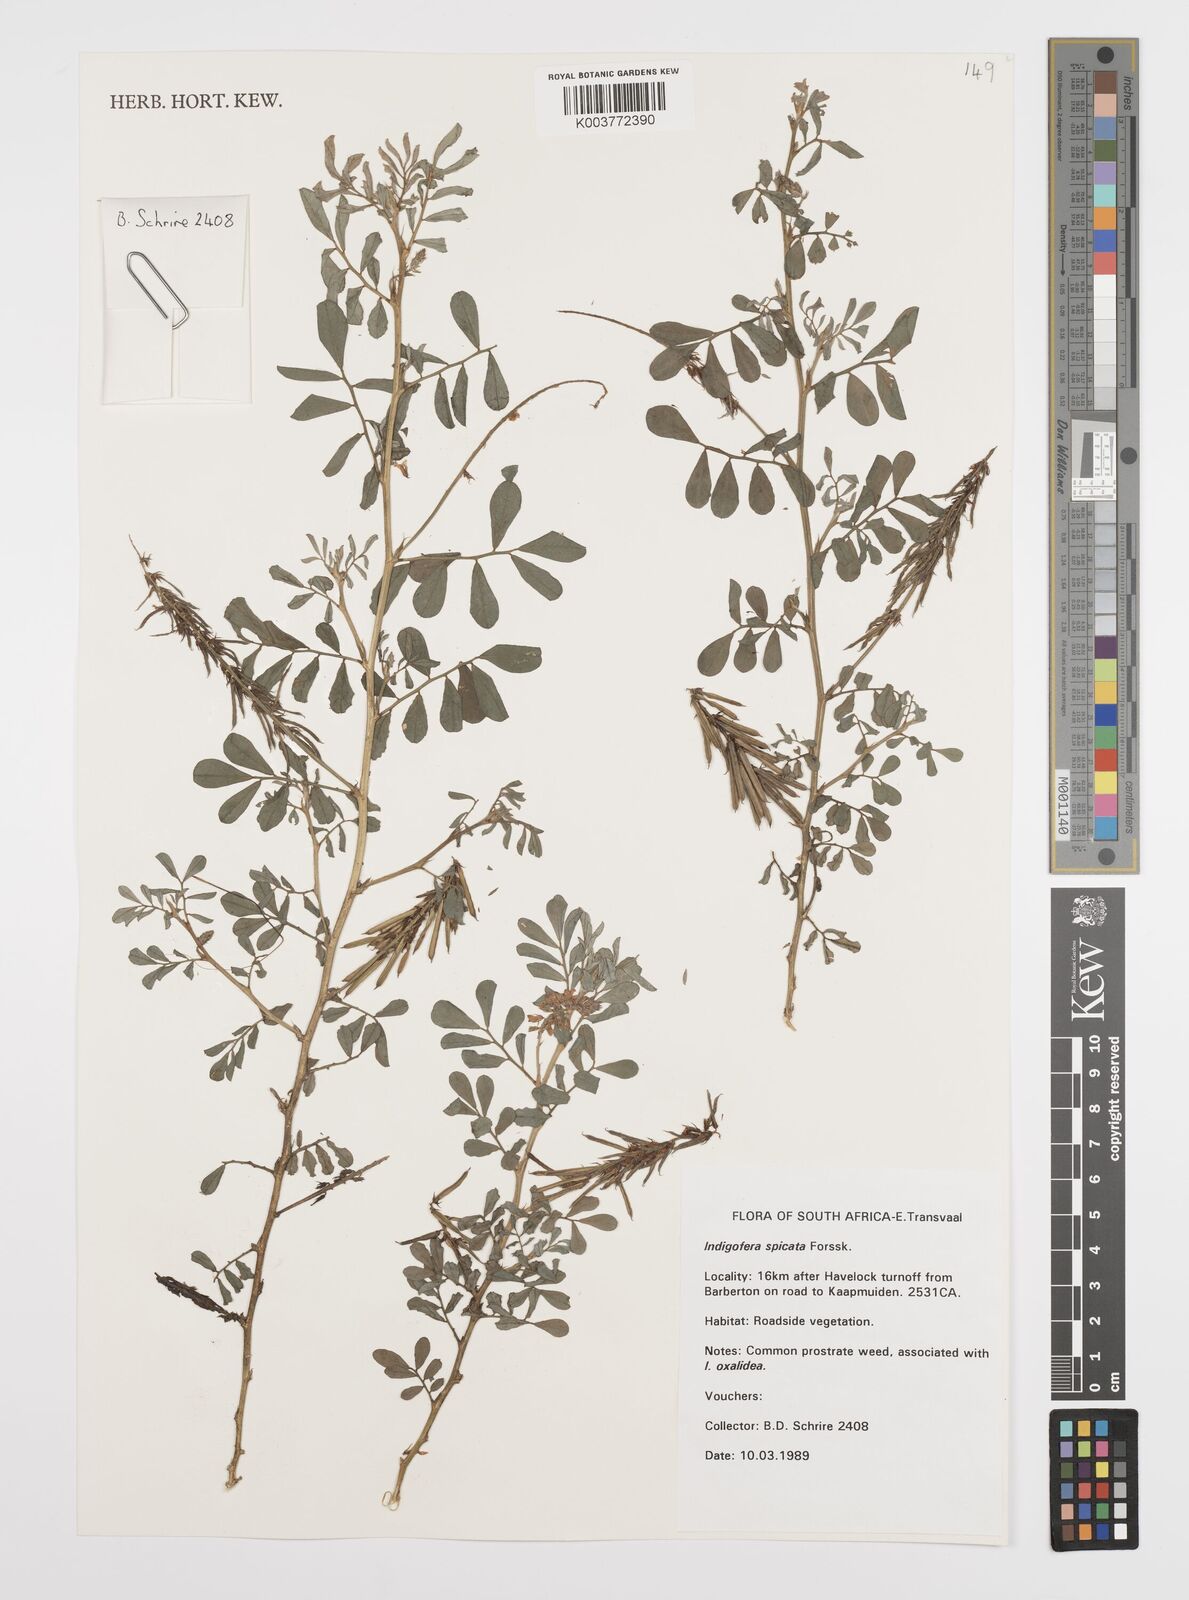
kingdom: Plantae
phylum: Tracheophyta
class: Magnoliopsida
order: Fabales
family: Fabaceae
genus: Indigofera
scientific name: Indigofera spicata
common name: Creeping indigo
